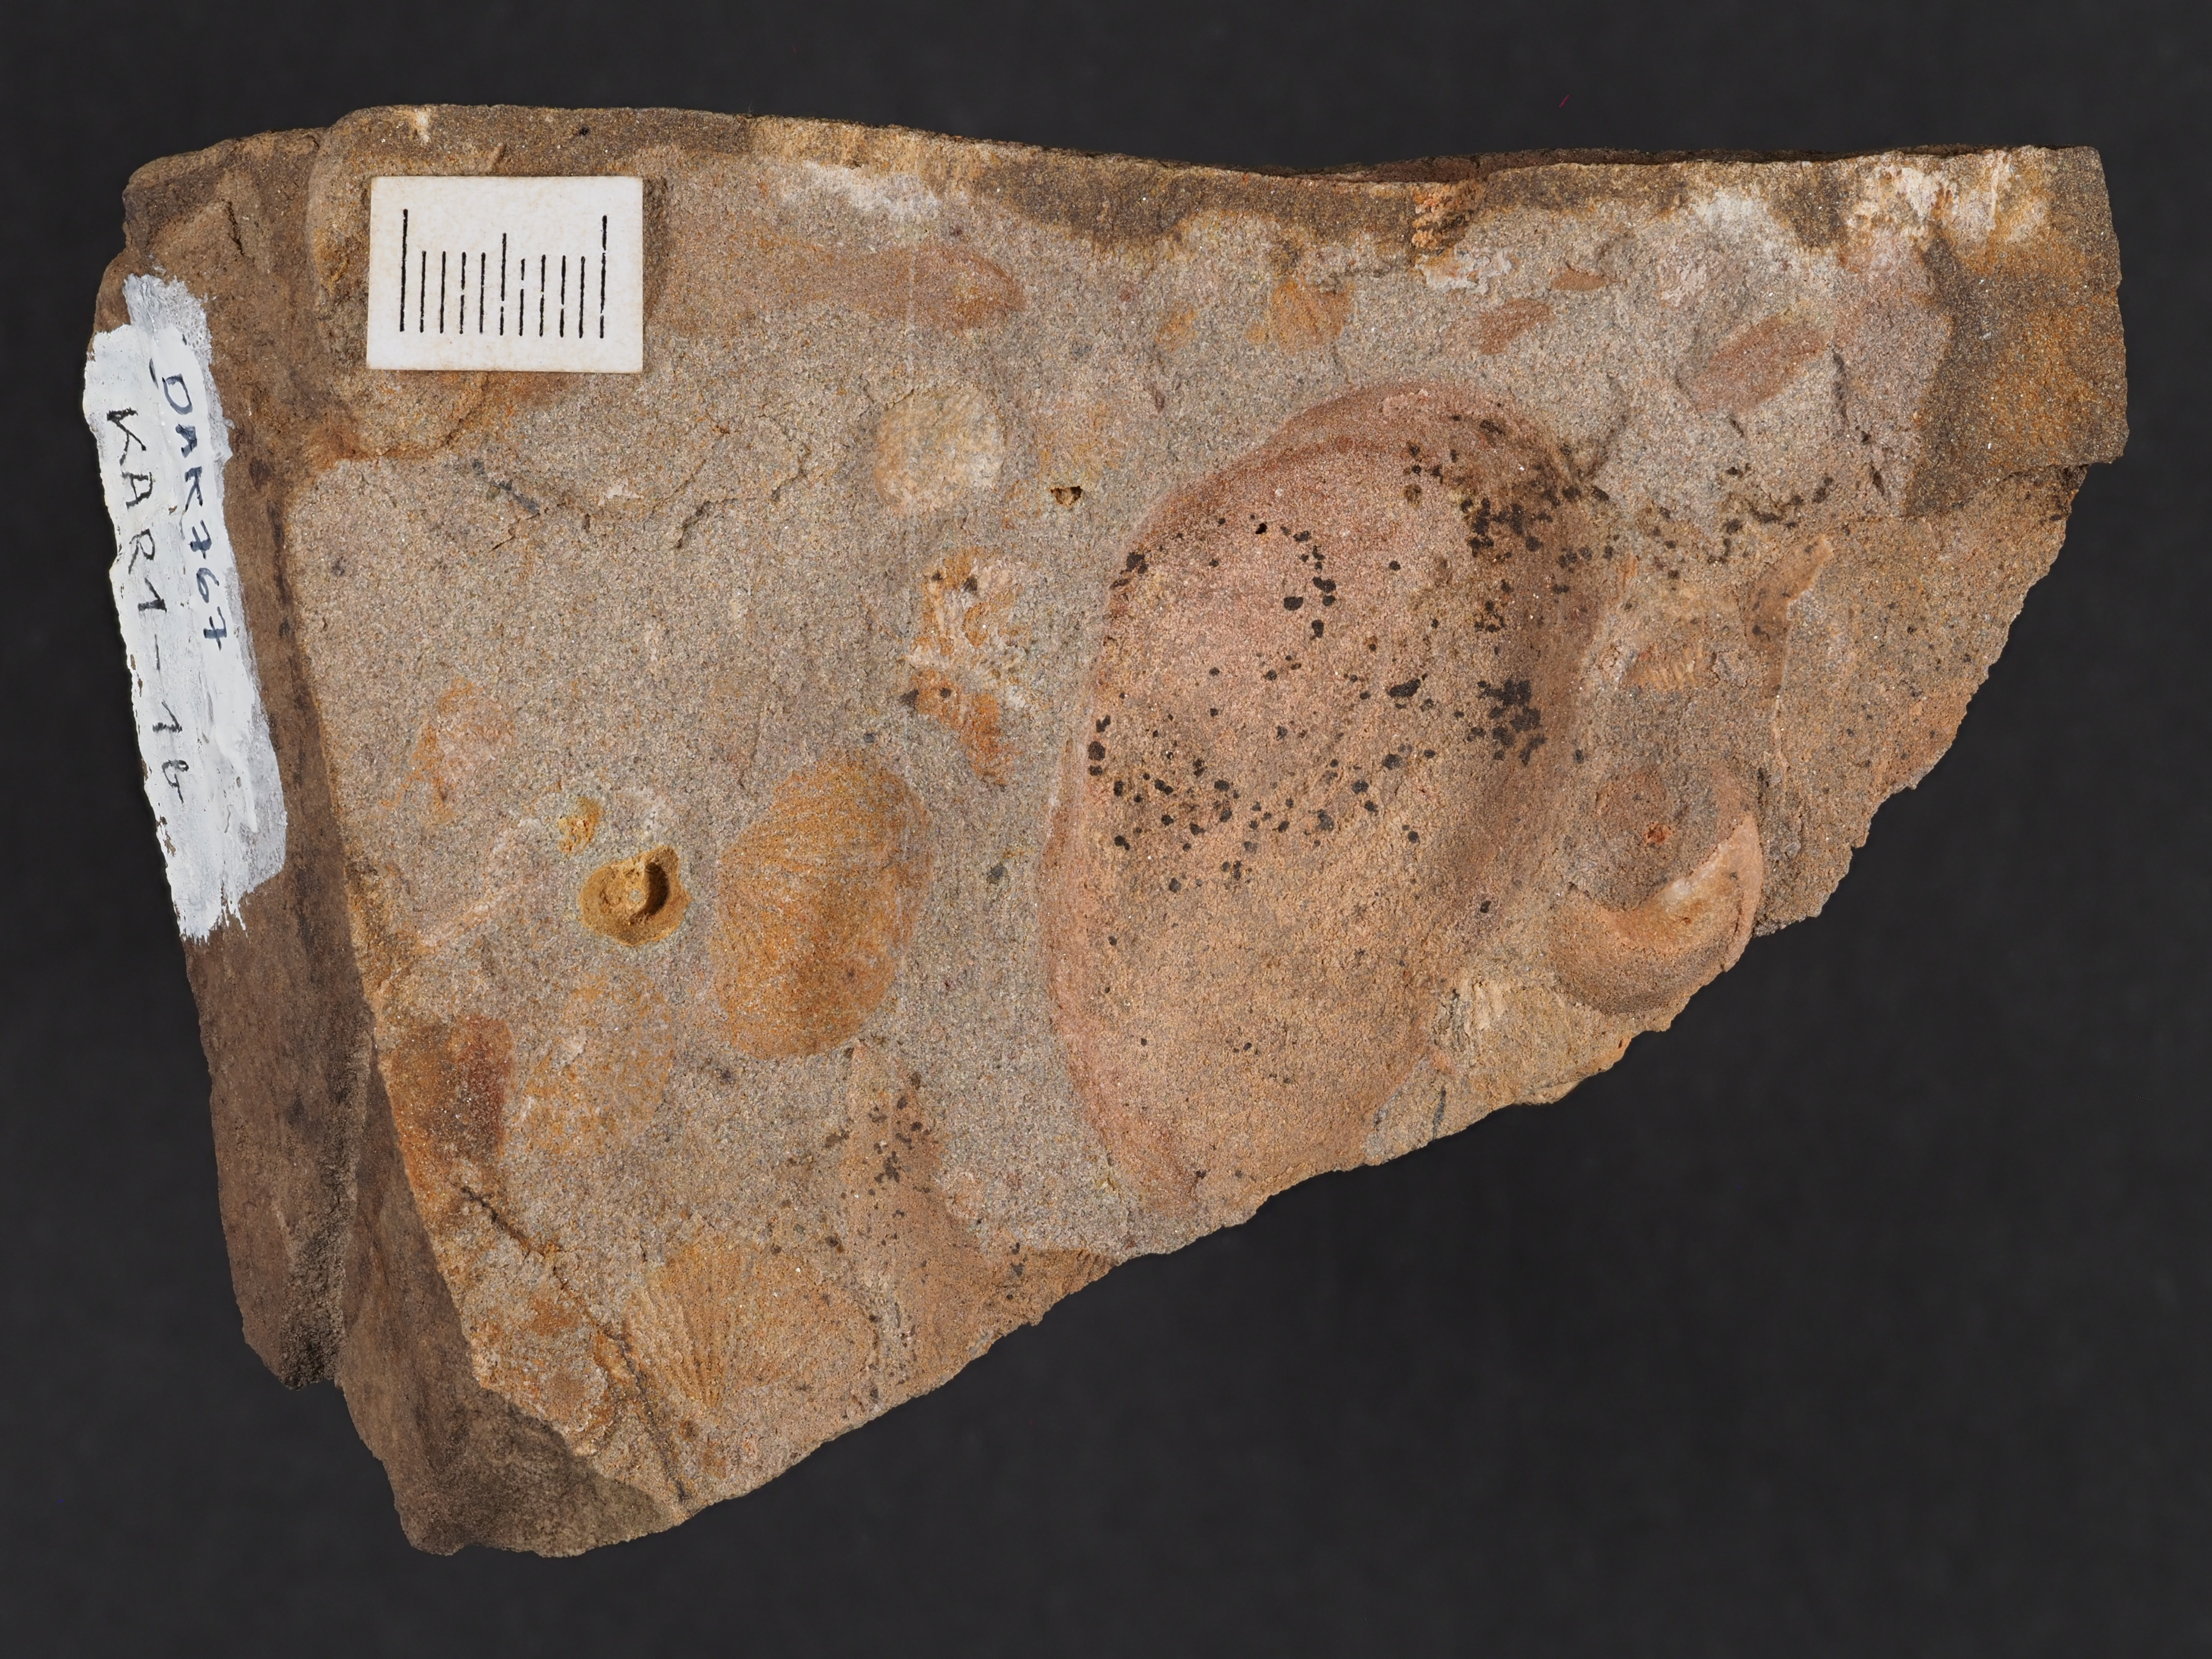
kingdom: Animalia
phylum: Mollusca
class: Bivalvia
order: Nuculanida
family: Malletiidae
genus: Palaeoneilo
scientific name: Palaeoneilo
